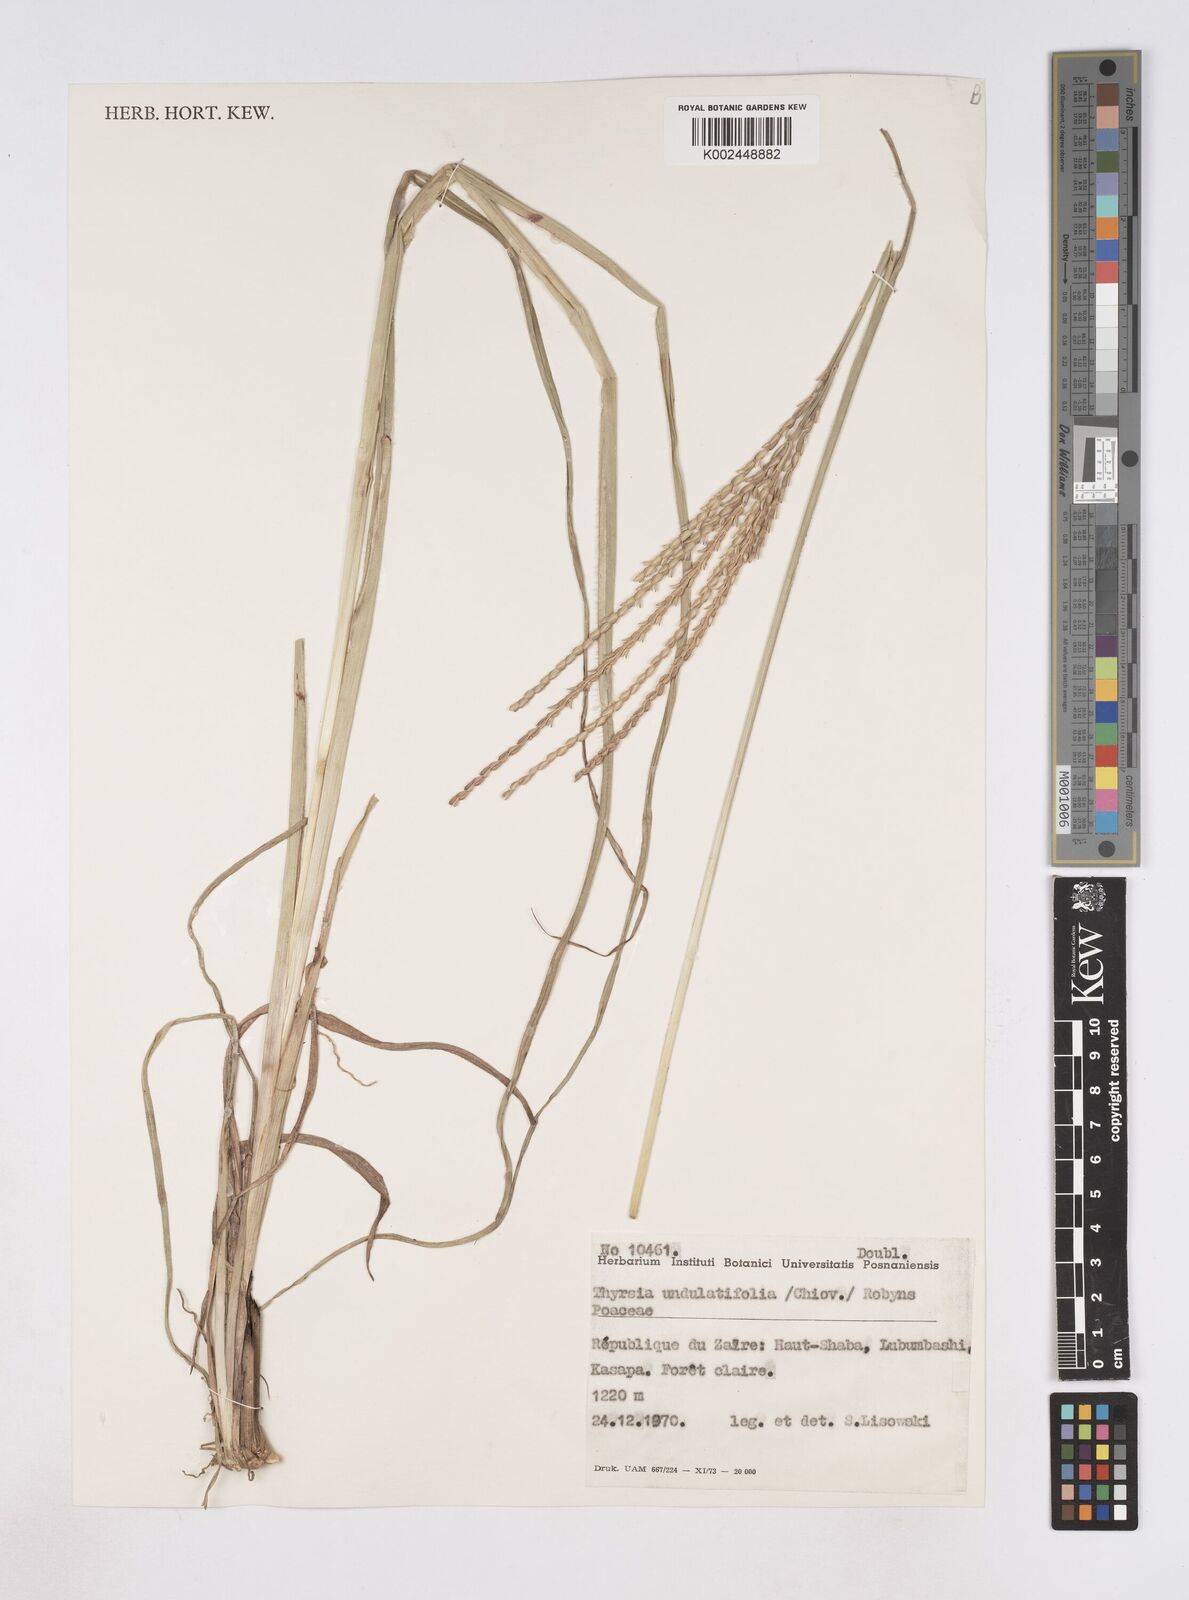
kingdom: Plantae
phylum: Tracheophyta
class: Liliopsida
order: Poales
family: Poaceae
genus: Thyrsia
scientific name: Thyrsia huillensis
